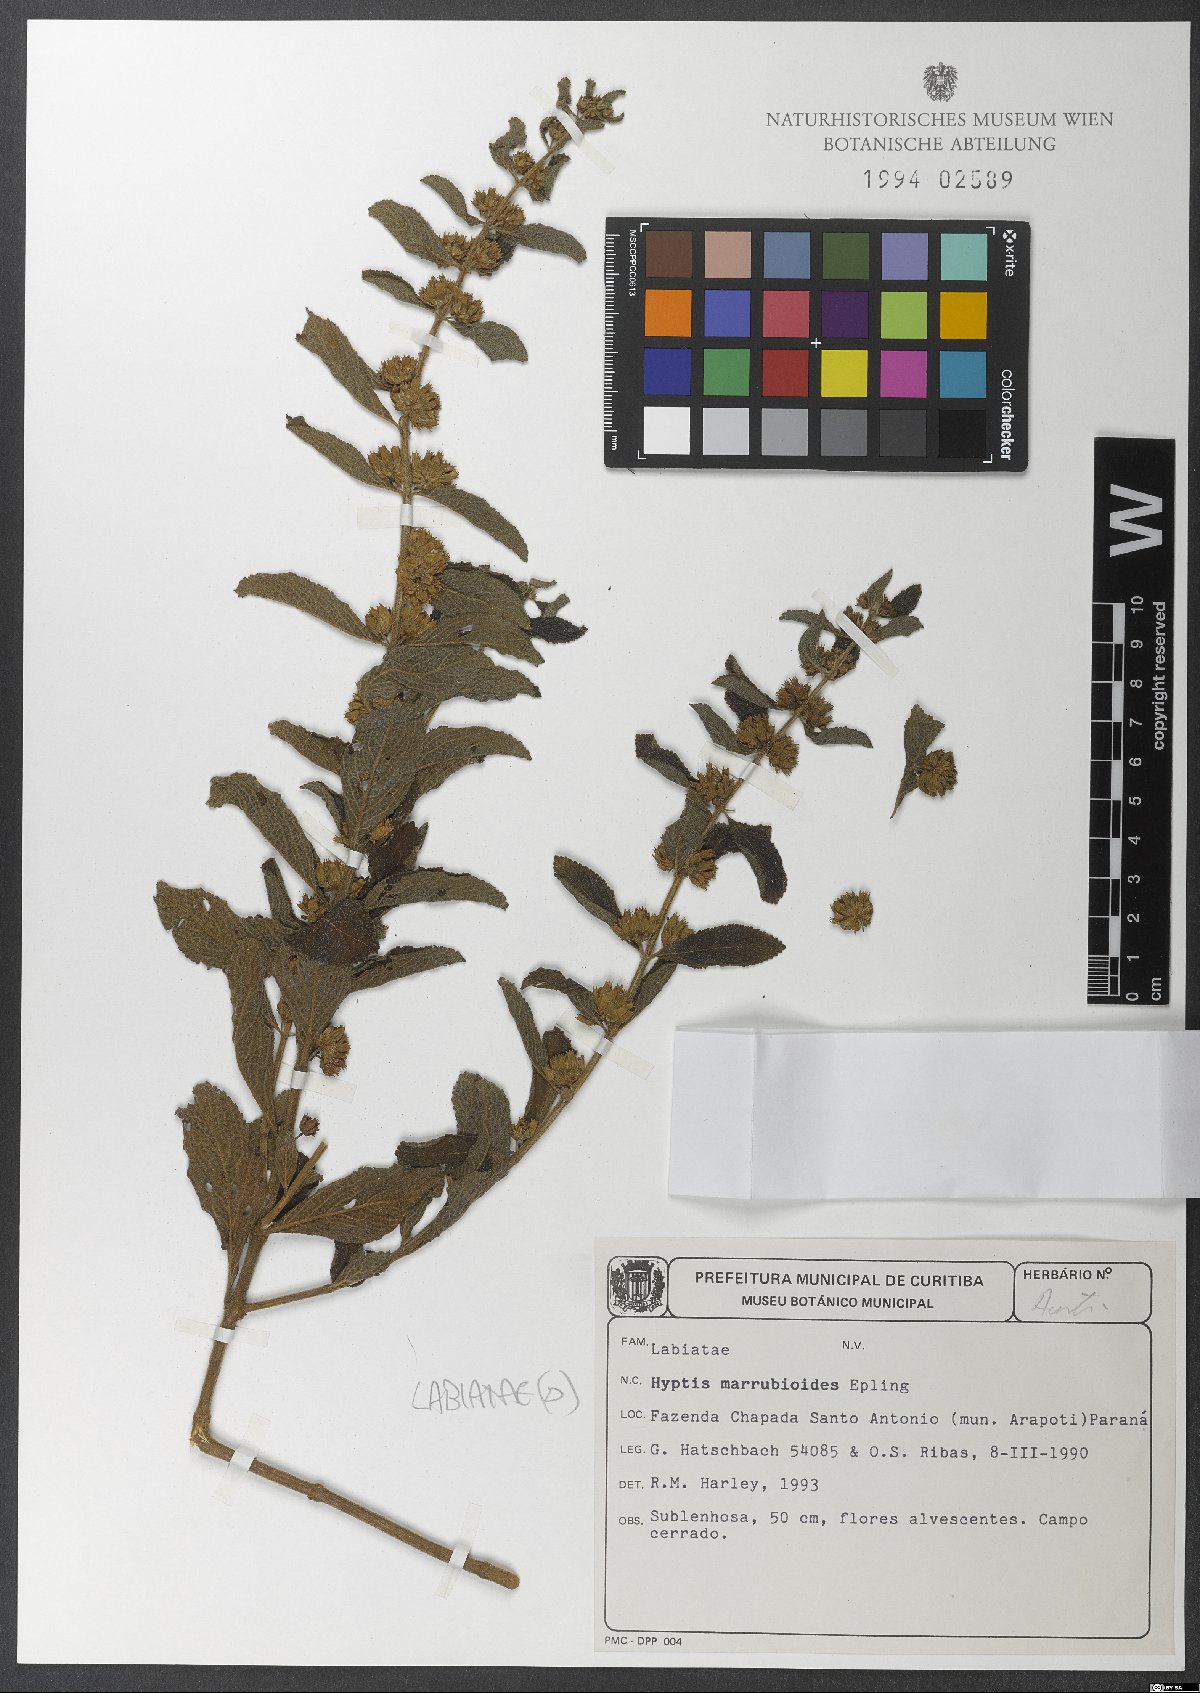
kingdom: Plantae
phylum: Tracheophyta
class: Magnoliopsida
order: Lamiales
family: Lamiaceae
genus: Hyptis
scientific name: Hyptis marrubioides
